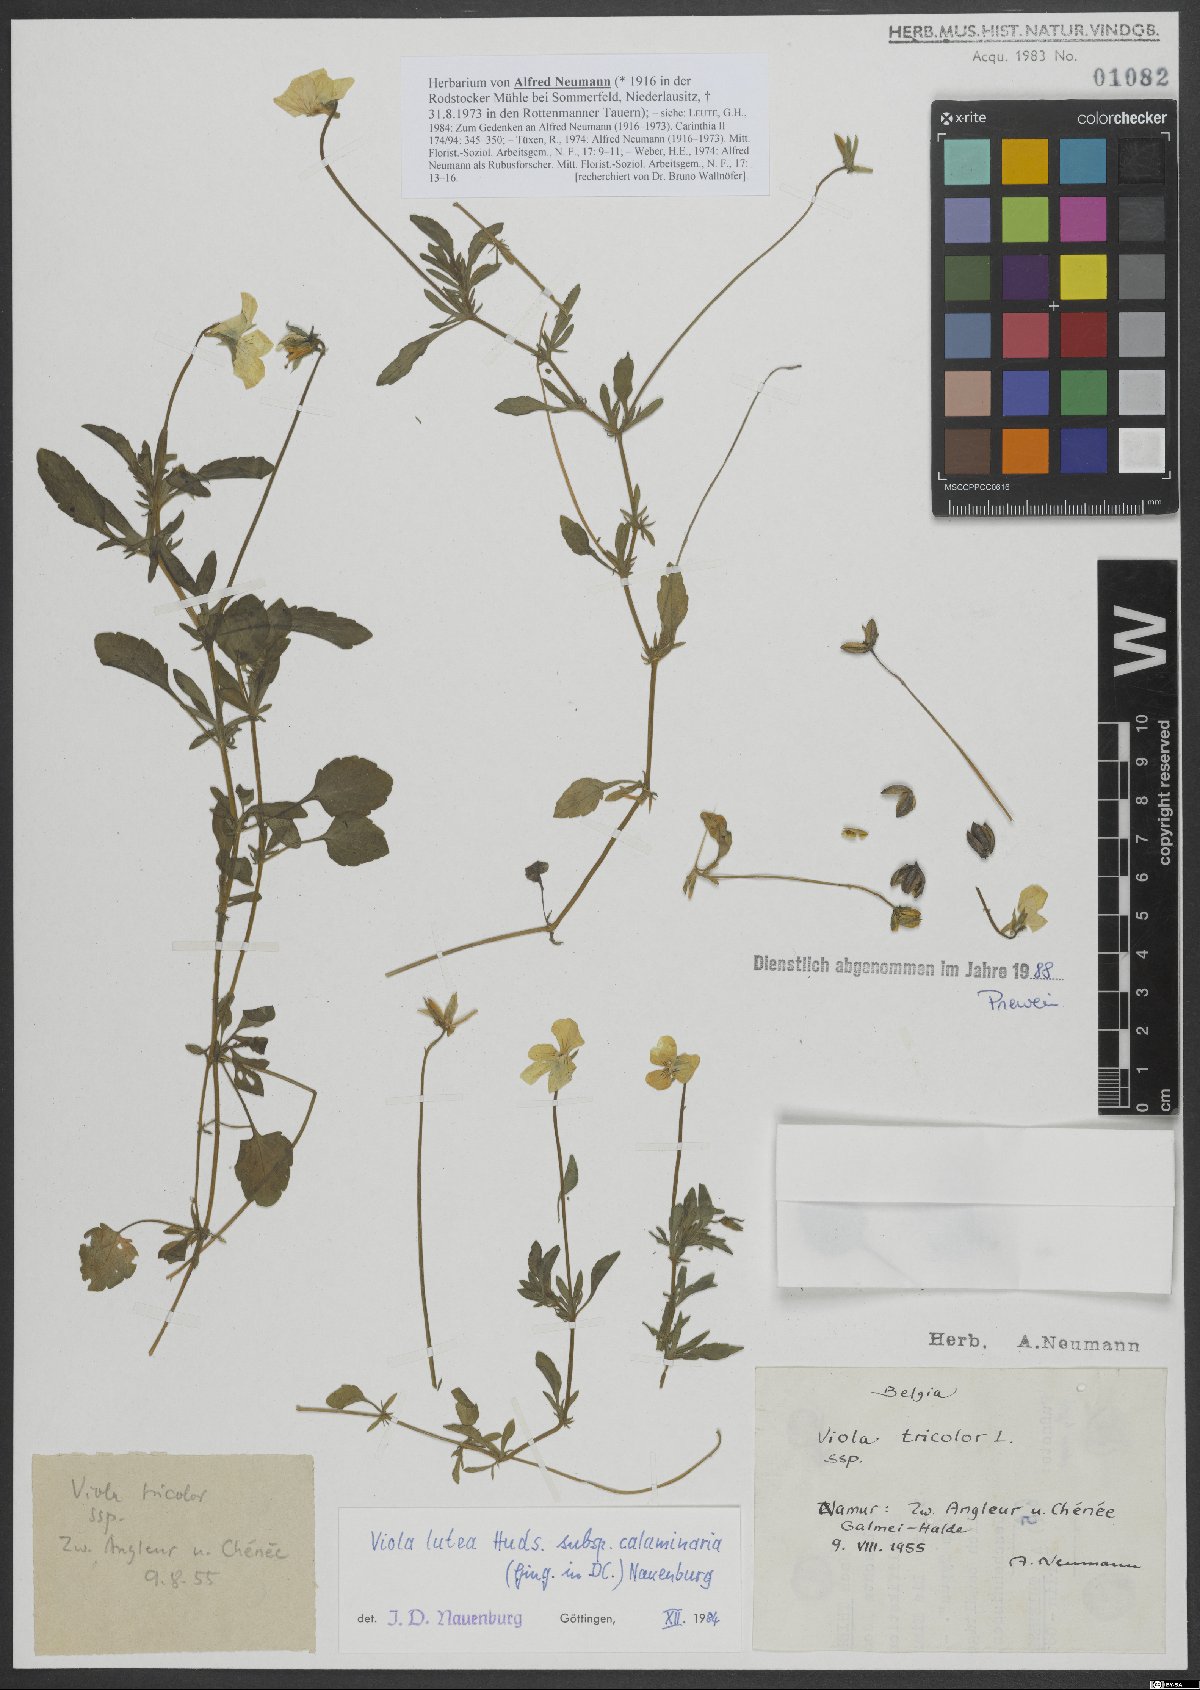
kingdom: Plantae
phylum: Tracheophyta
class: Magnoliopsida
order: Malpighiales
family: Violaceae
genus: Viola
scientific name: Viola lutea
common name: Mountain pansy
